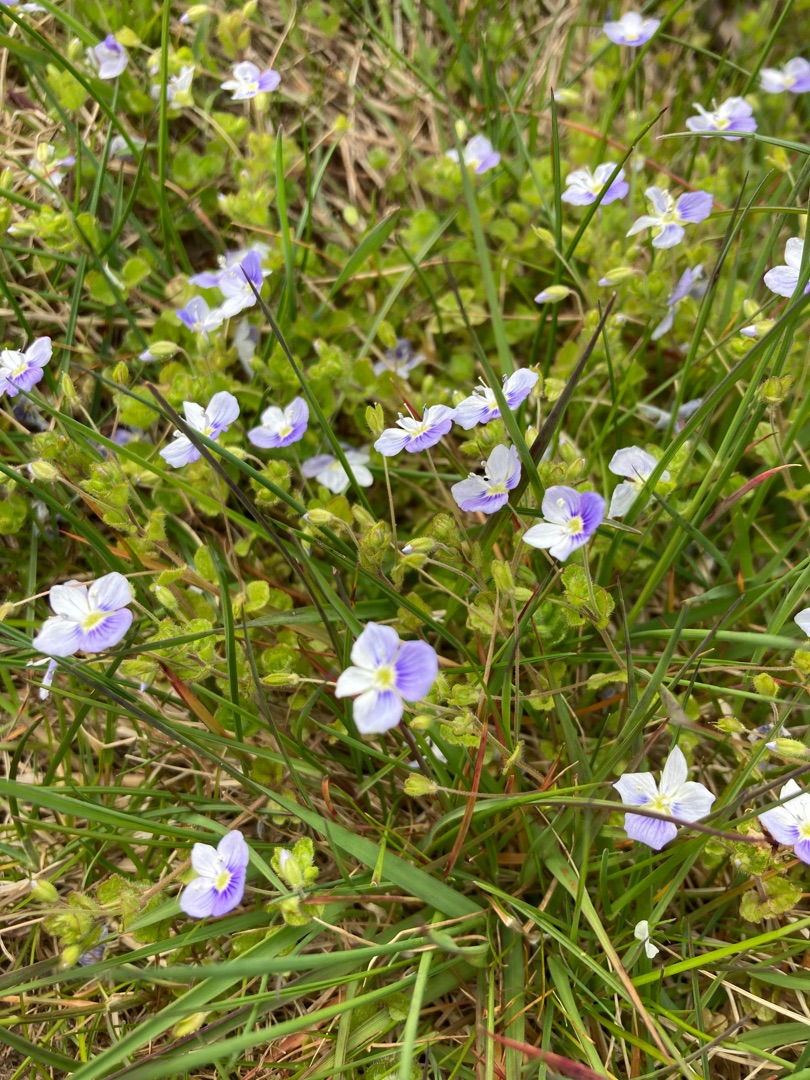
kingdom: Plantae
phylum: Tracheophyta
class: Magnoliopsida
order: Lamiales
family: Plantaginaceae
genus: Veronica
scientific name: Veronica filiformis
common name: Tråd-ærenpris
